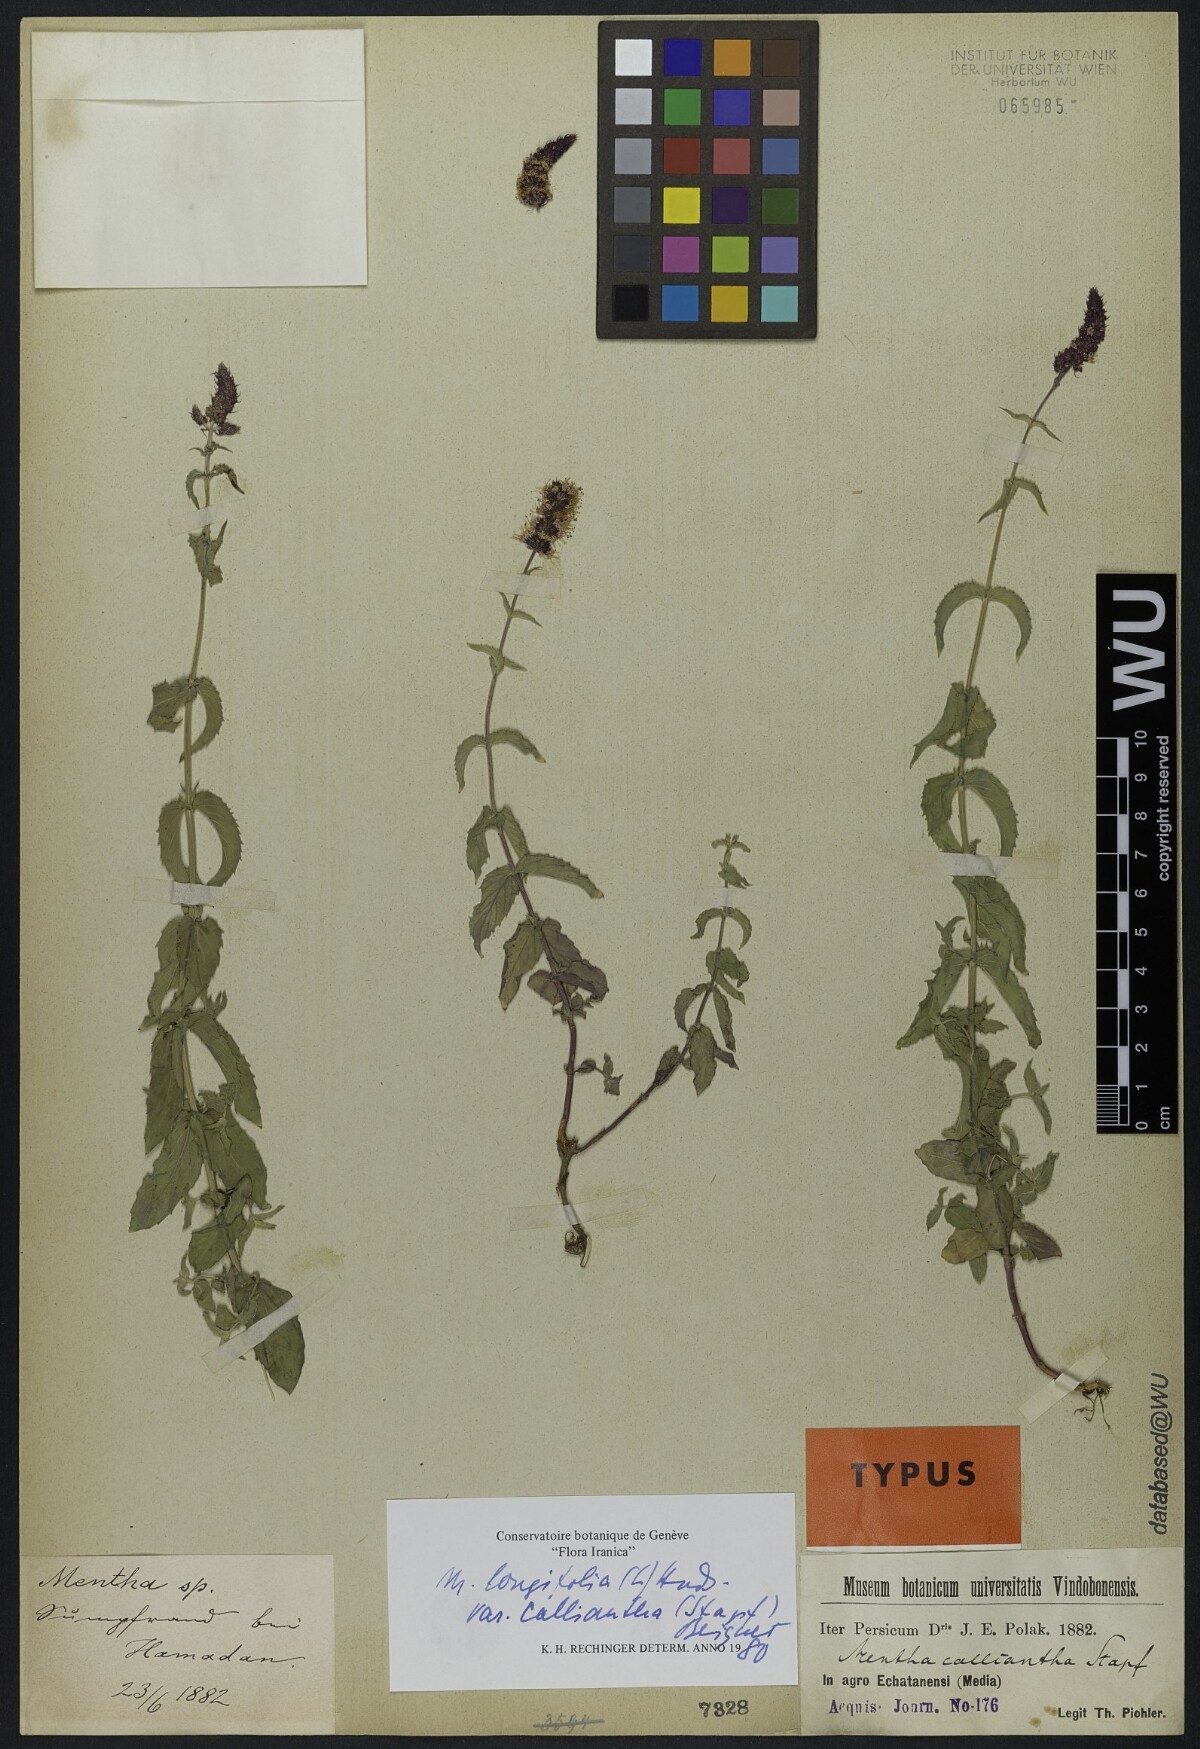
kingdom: Plantae
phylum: Tracheophyta
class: Magnoliopsida
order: Lamiales
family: Lamiaceae
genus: Mentha
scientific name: Mentha longifolia
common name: Horse mint
